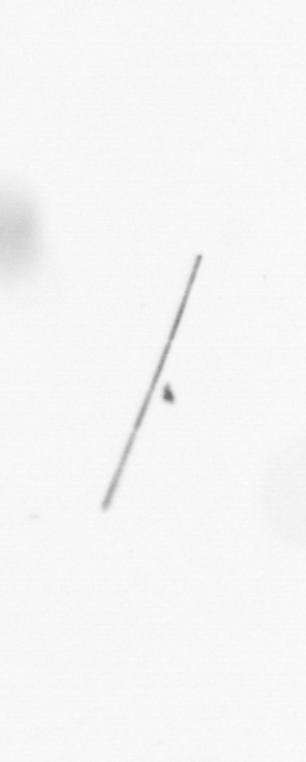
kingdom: Chromista
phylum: Ochrophyta
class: Bacillariophyceae
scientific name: Bacillariophyceae
